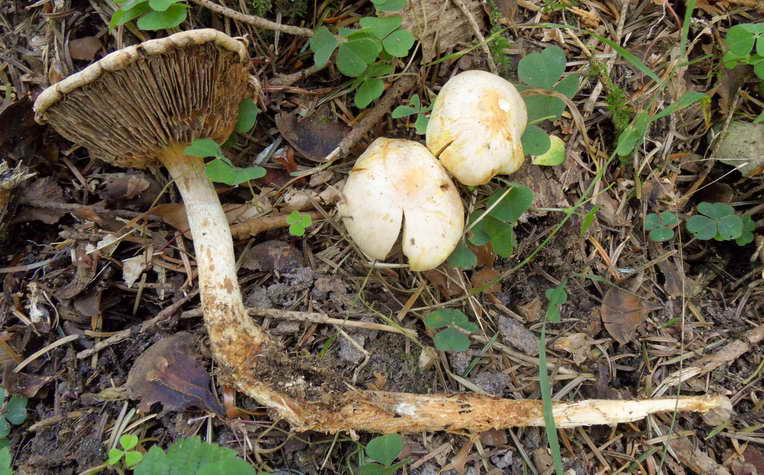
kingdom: Fungi
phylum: Basidiomycota
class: Agaricomycetes
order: Agaricales
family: Strophariaceae
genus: Hypholoma
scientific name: Hypholoma radicosum
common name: pælerods-svovlhat
